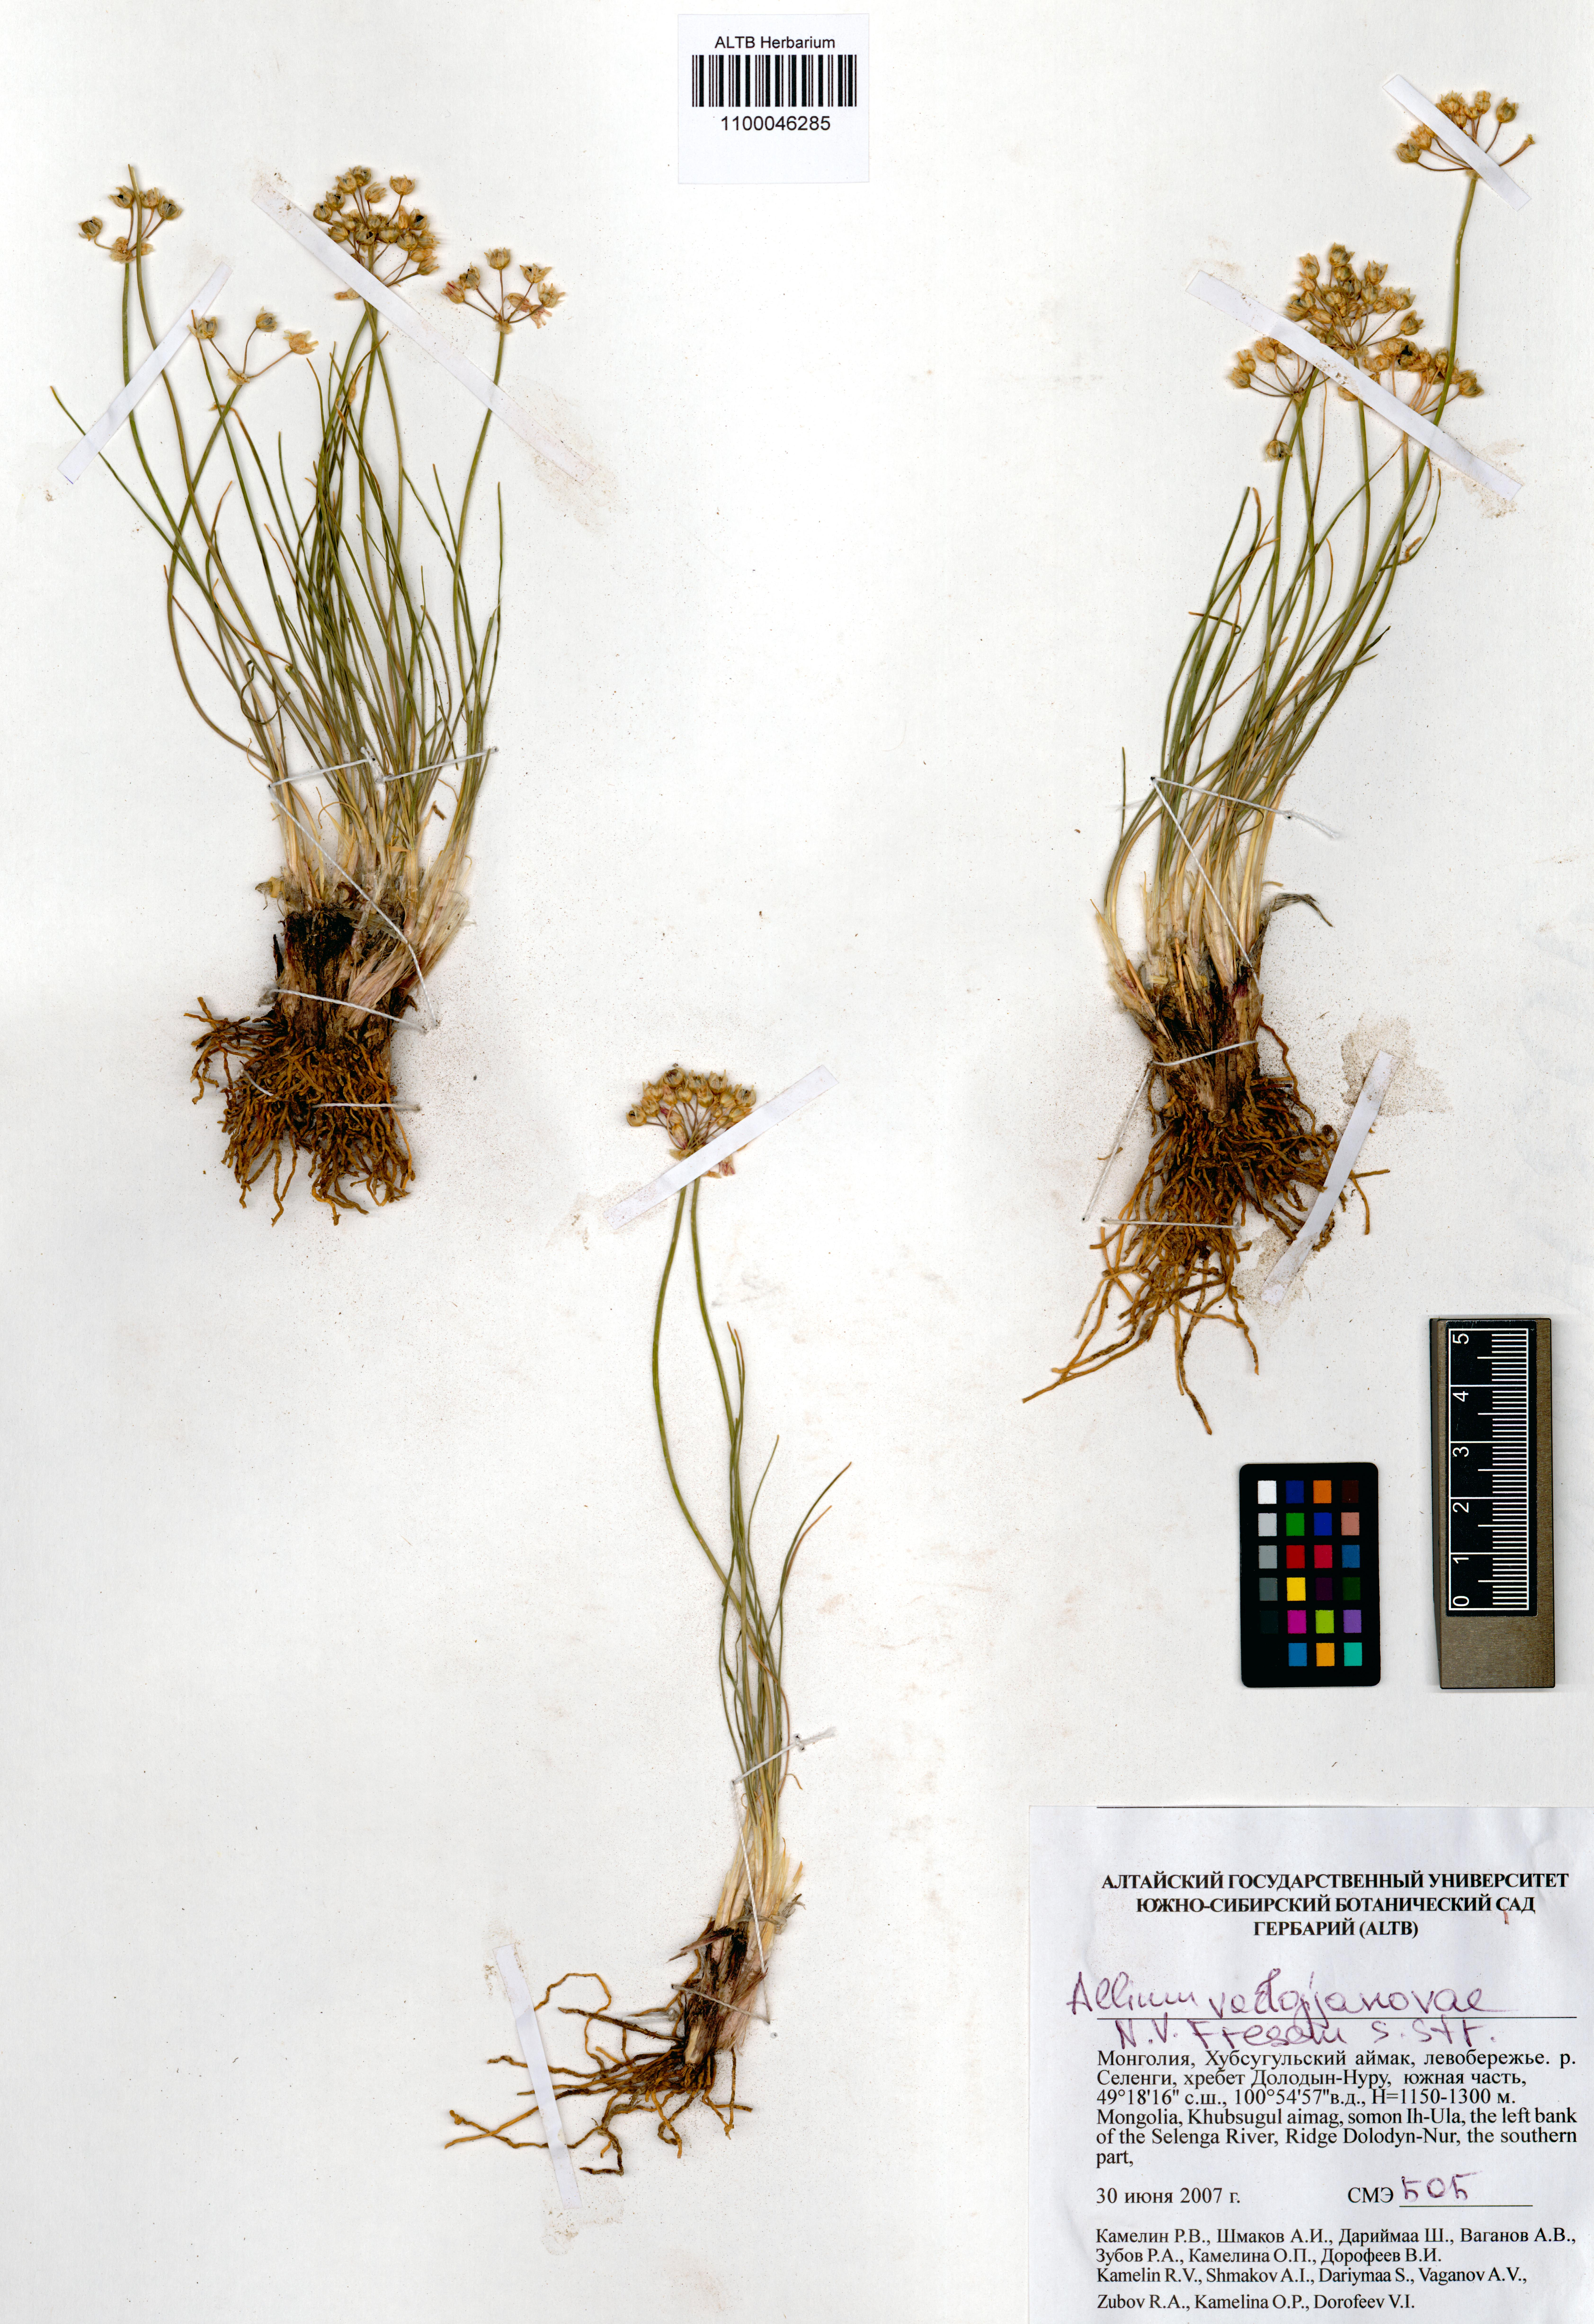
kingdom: Plantae
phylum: Tracheophyta
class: Liliopsida
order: Asparagales
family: Amaryllidaceae
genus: Allium
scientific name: Allium vodopjanovae
